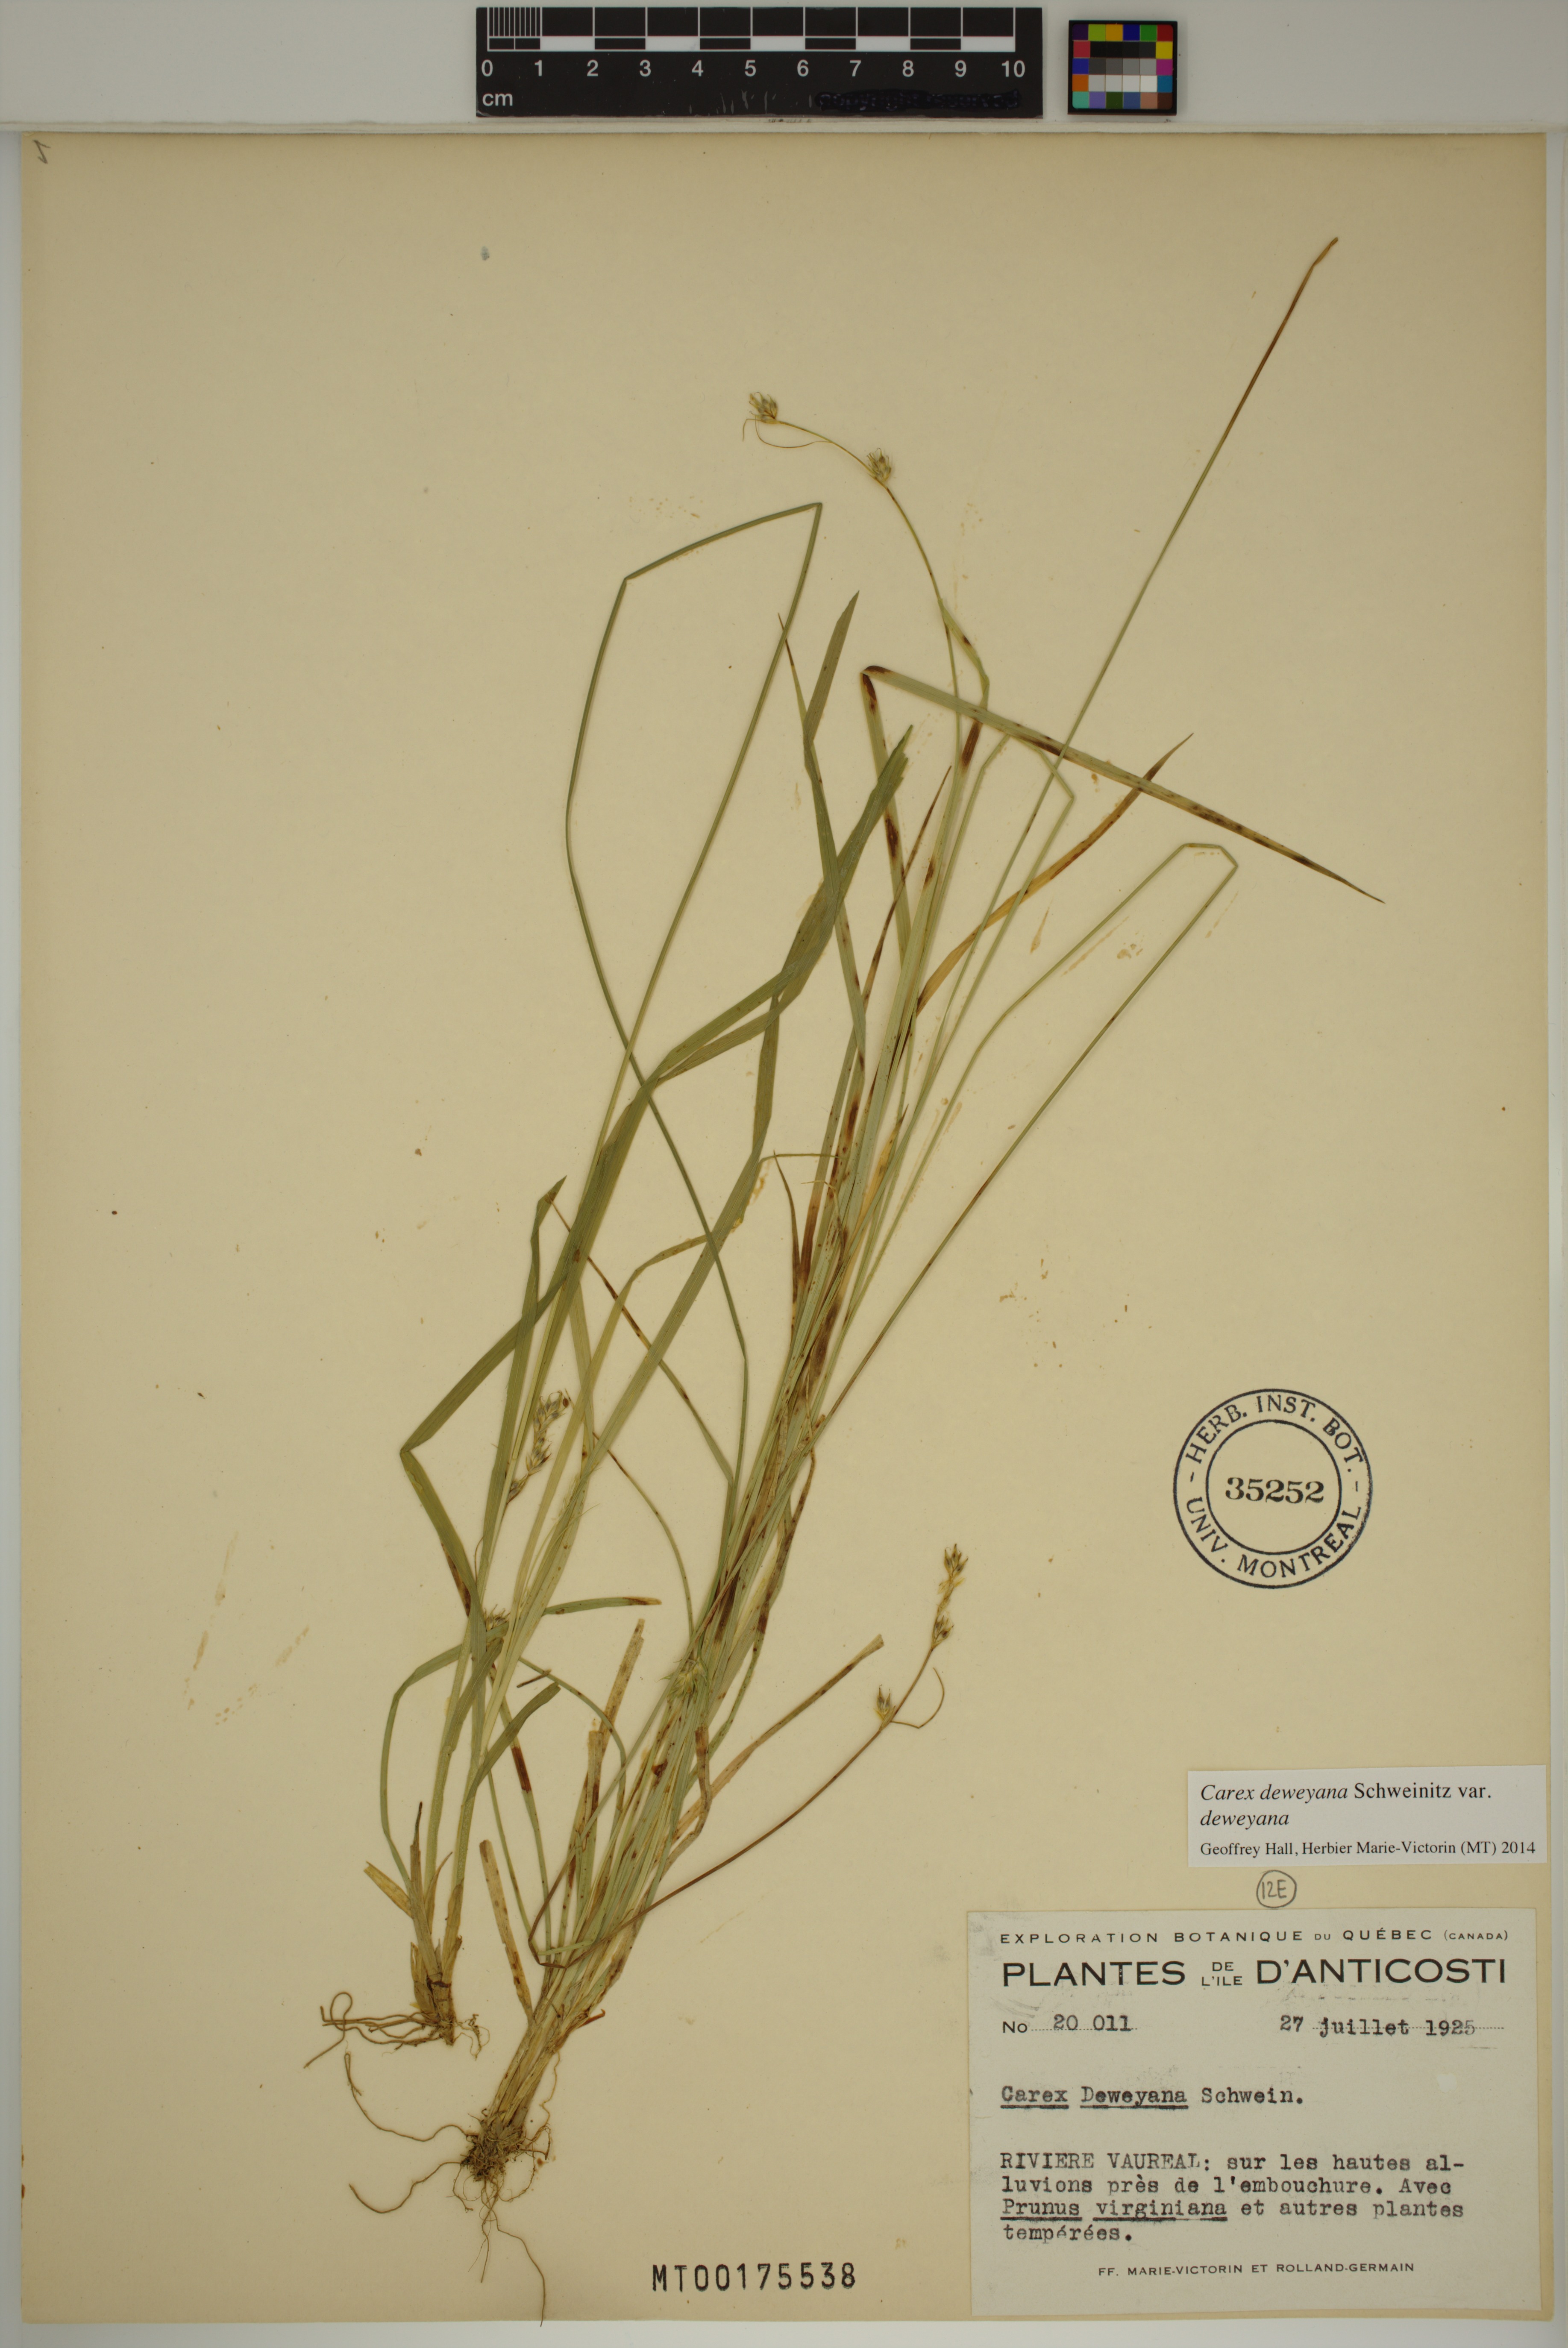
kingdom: Plantae
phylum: Tracheophyta
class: Liliopsida
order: Poales
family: Cyperaceae
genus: Carex
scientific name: Carex deweyana
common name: Dewey's sedge
